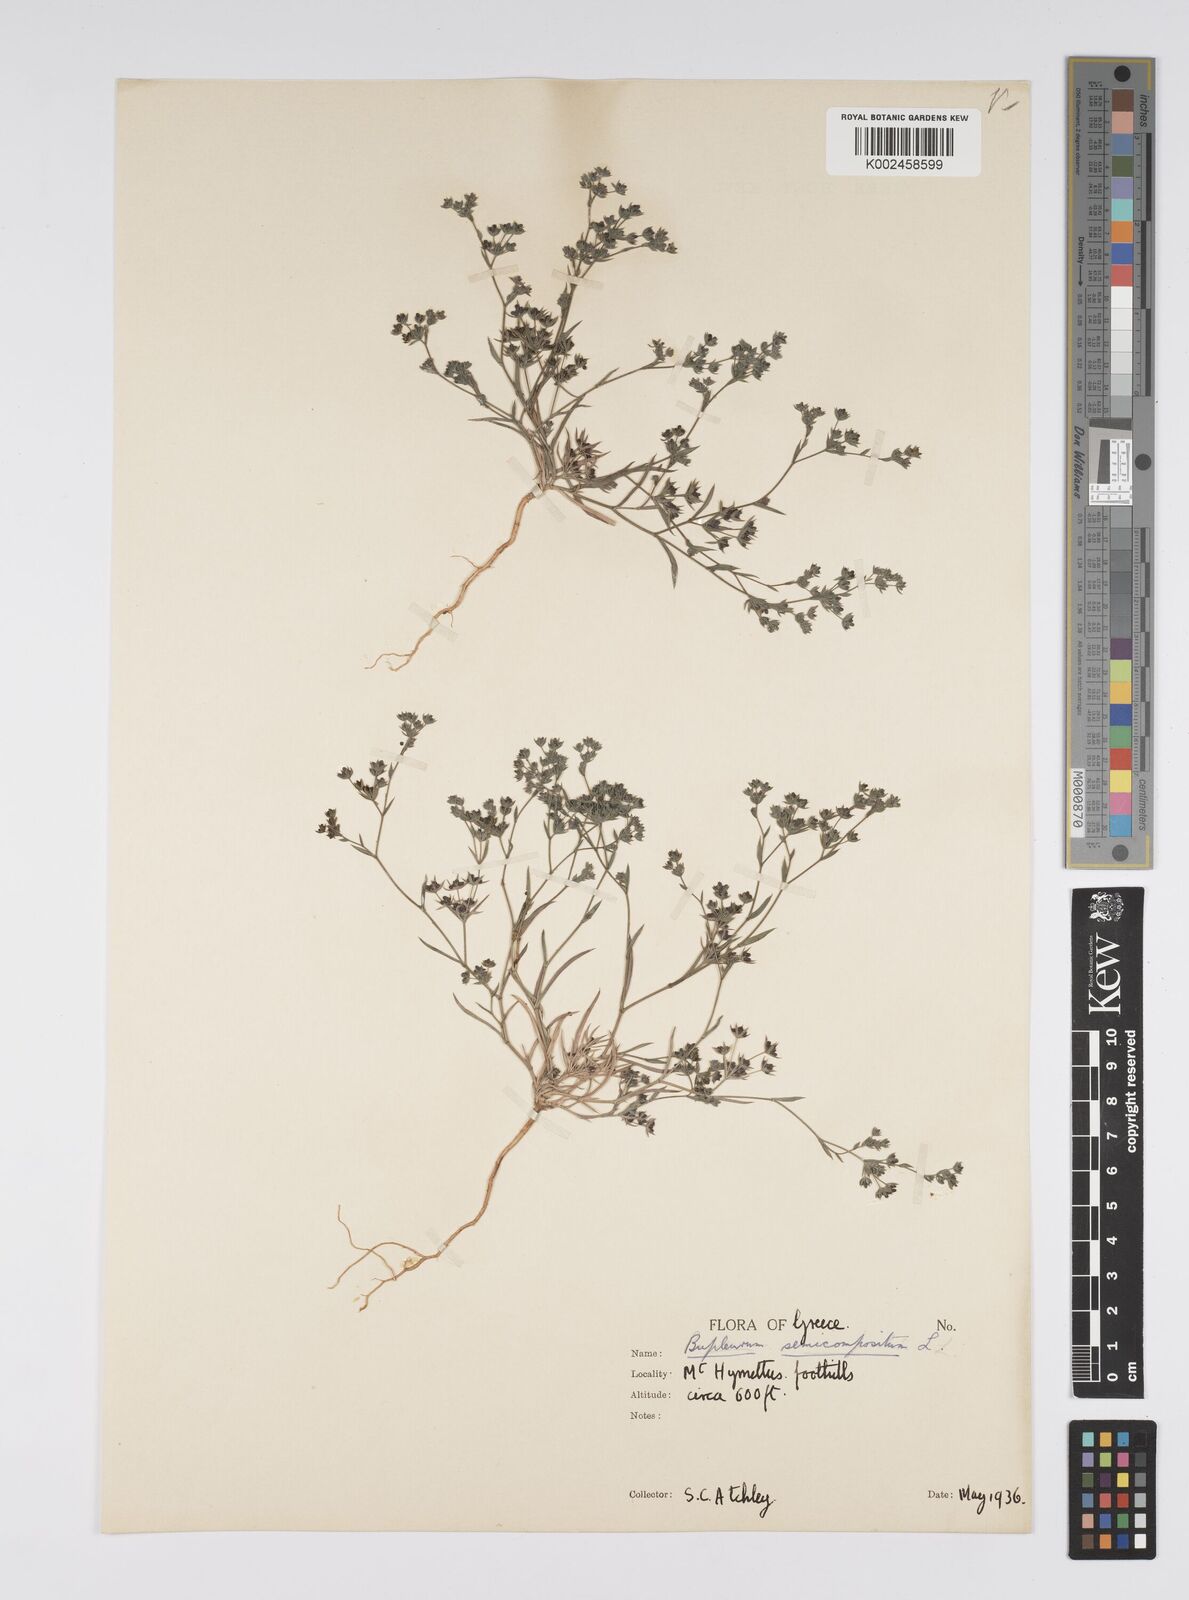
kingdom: Plantae
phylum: Tracheophyta
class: Magnoliopsida
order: Apiales
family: Apiaceae
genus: Bupleurum
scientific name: Bupleurum semicompositum
